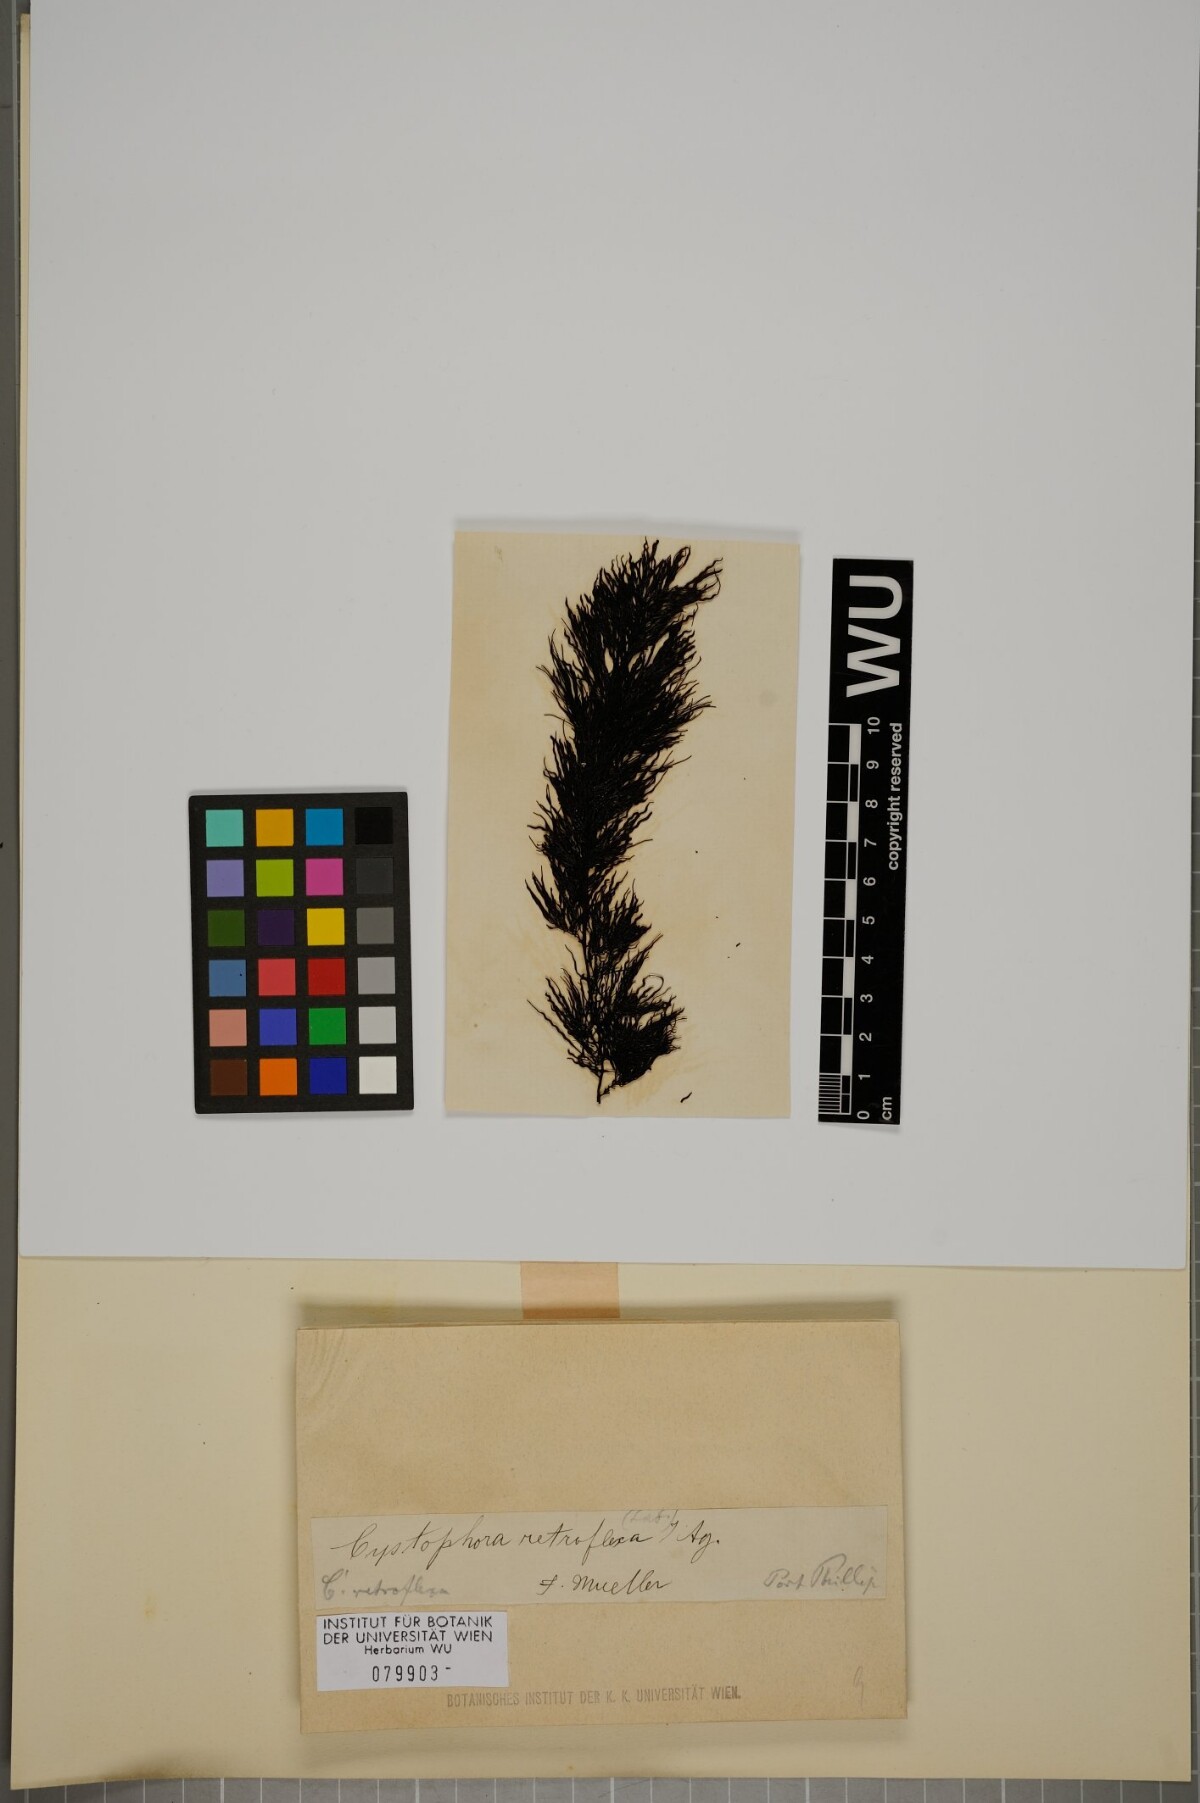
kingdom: Chromista
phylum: Ochrophyta
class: Phaeophyceae
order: Fucales
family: Sargassaceae
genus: Cystophora
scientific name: Cystophora retroflexa
